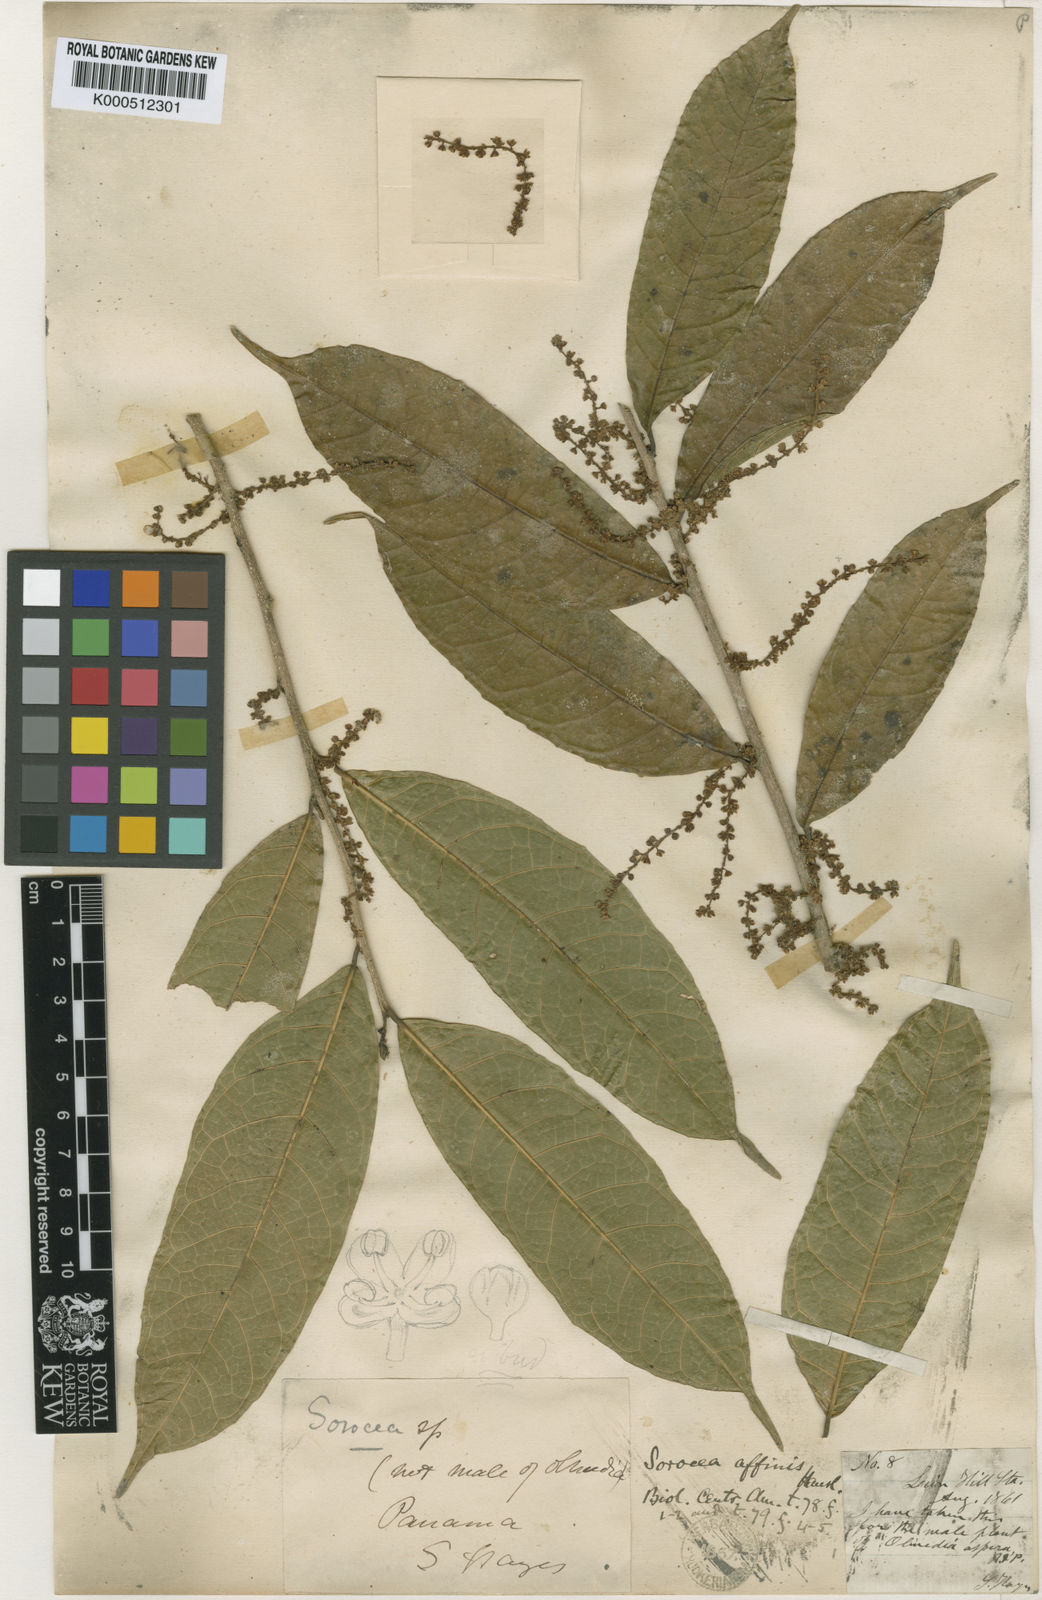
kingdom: Plantae
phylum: Tracheophyta
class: Magnoliopsida
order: Rosales
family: Moraceae
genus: Sorocea
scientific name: Sorocea affinis
